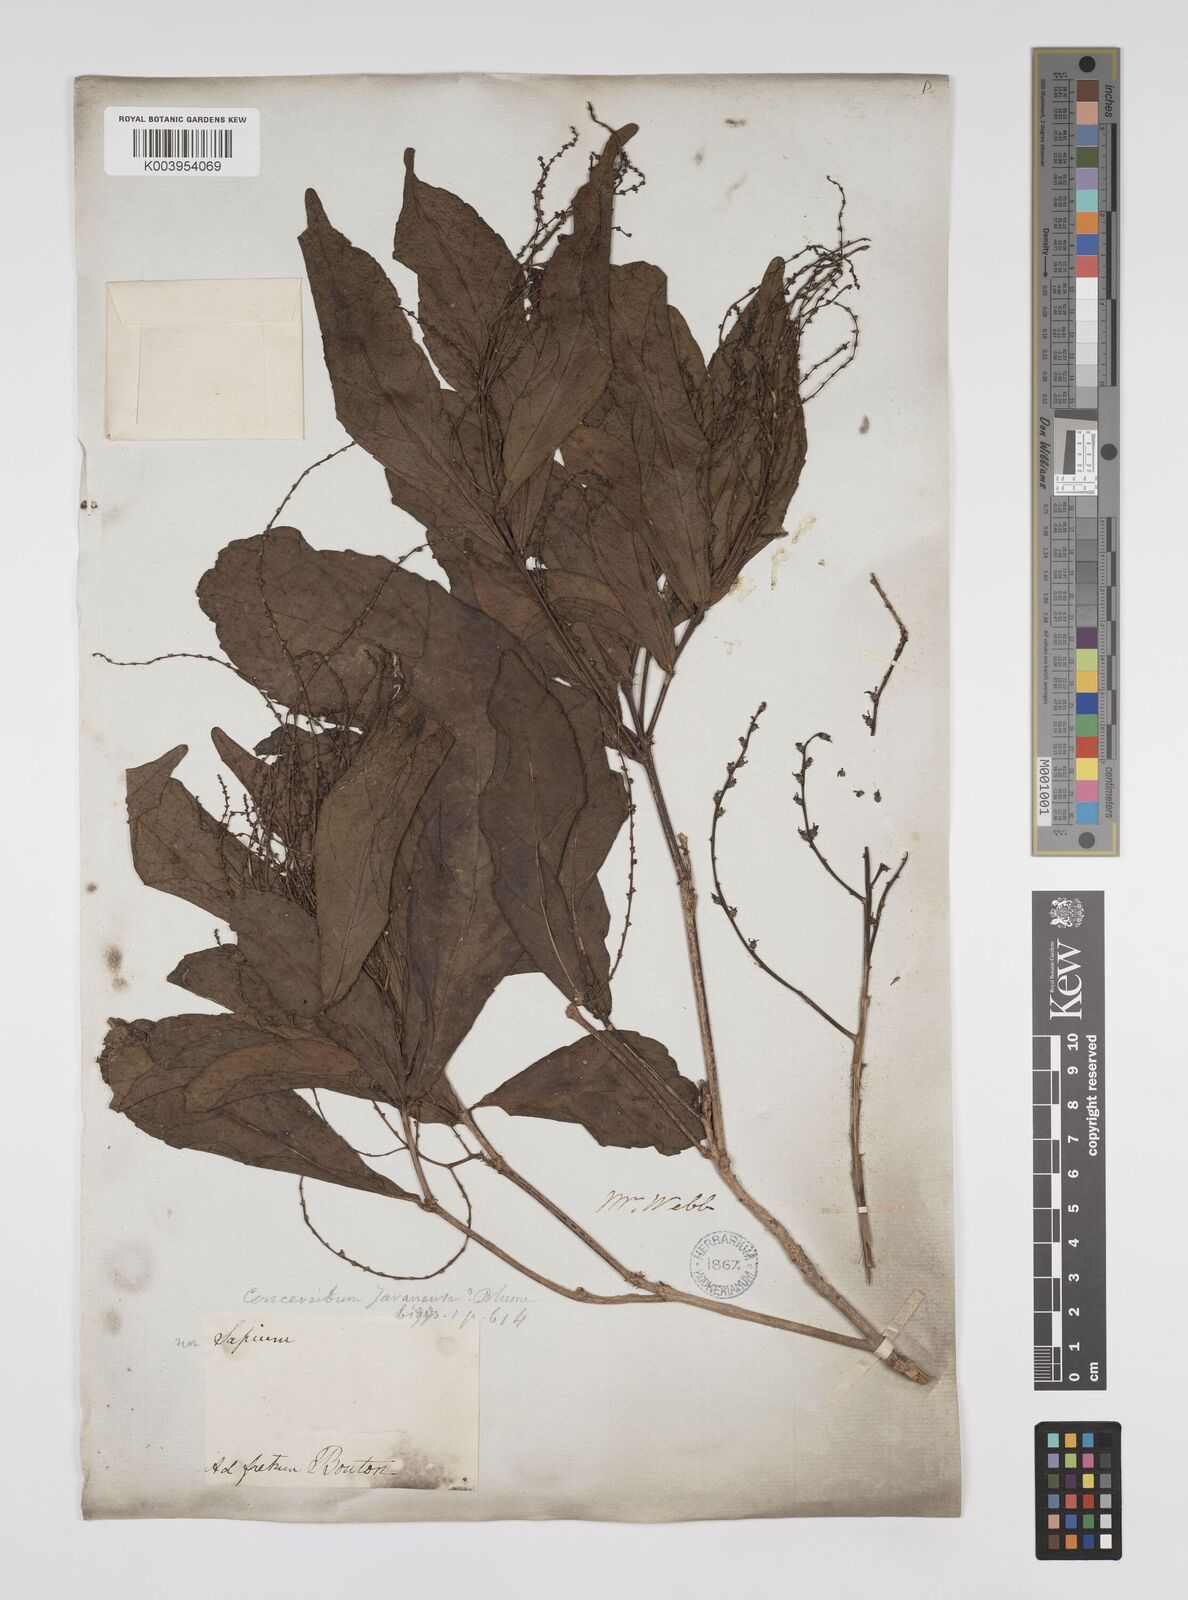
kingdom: Plantae
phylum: Tracheophyta
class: Magnoliopsida
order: Malpighiales
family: Euphorbiaceae
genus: Alchornea
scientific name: Alchornea rugosa
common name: Alchorntree
